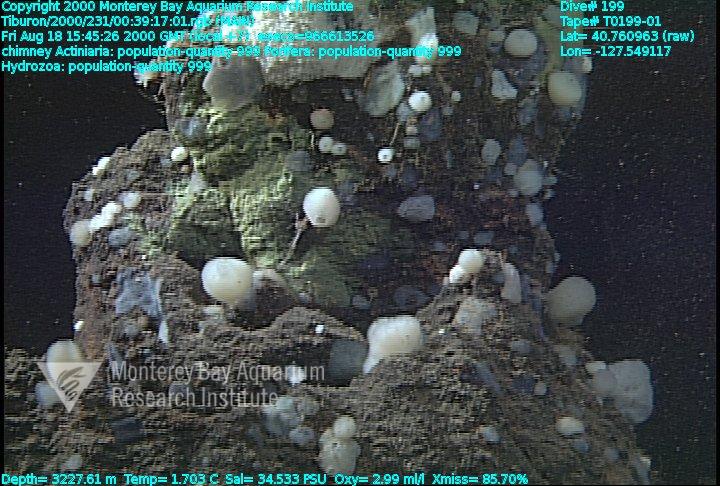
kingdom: Animalia
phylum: Porifera
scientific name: Porifera
